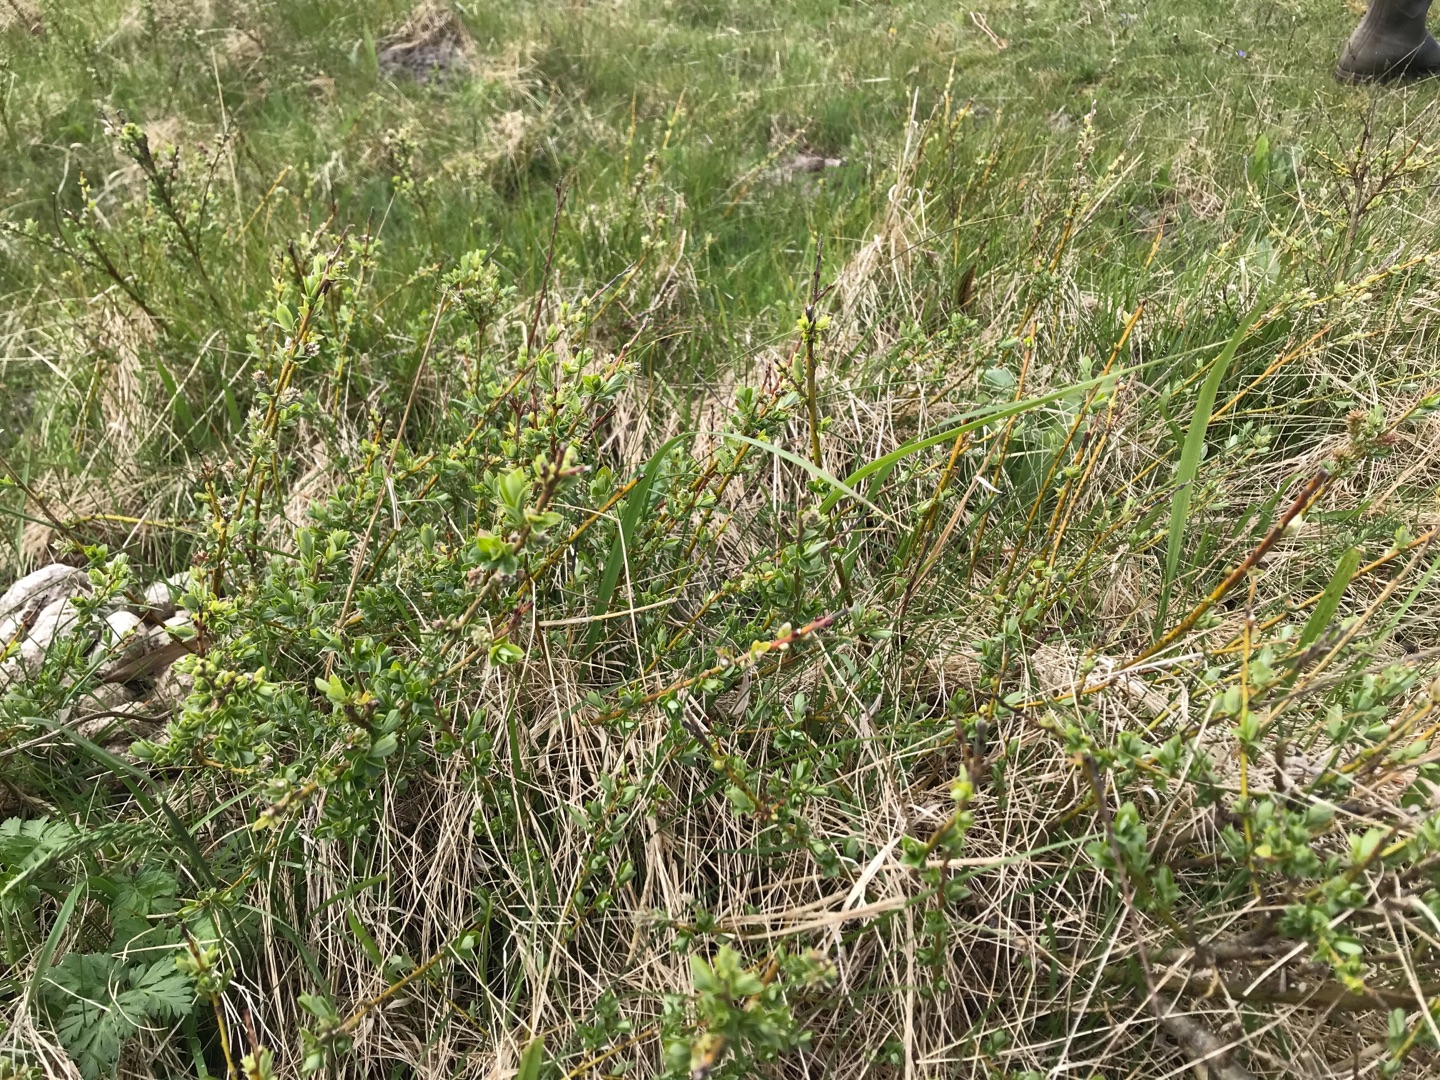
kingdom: Plantae
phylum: Tracheophyta
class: Magnoliopsida
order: Malpighiales
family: Salicaceae
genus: Salix
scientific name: Salix repens
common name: Krybende pil
